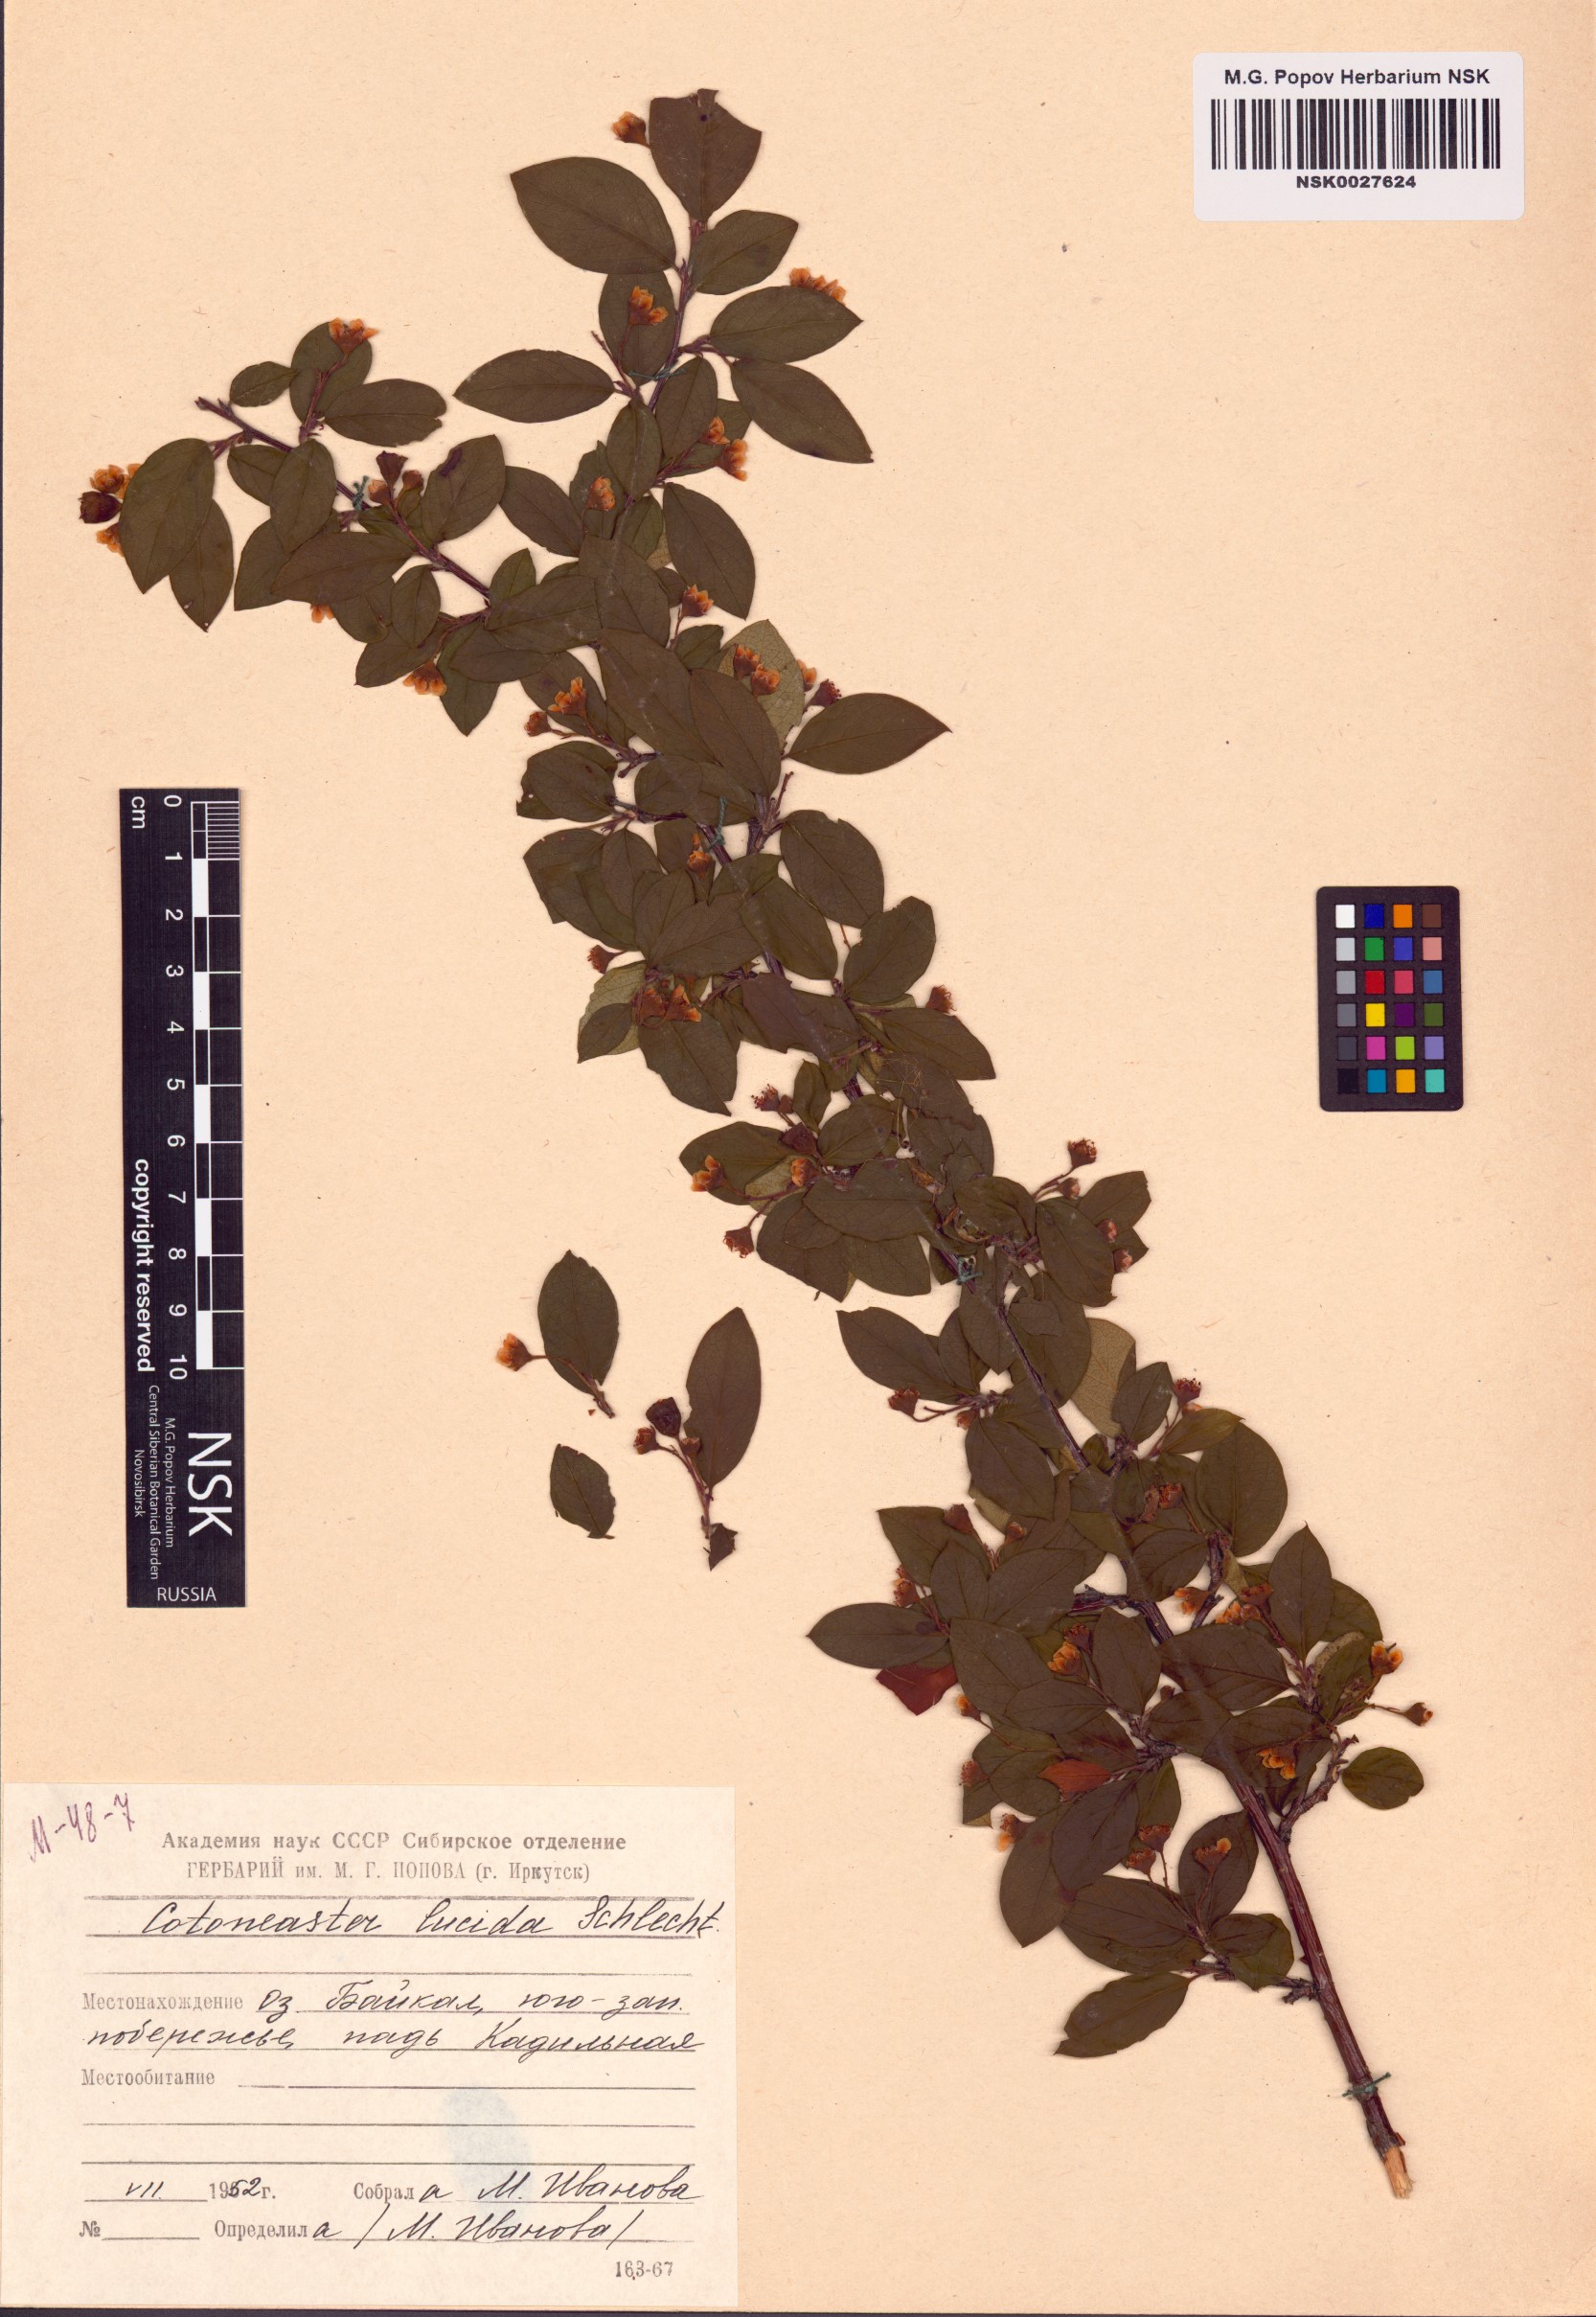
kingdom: Plantae
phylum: Tracheophyta
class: Magnoliopsida
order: Rosales
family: Rosaceae
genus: Cotoneaster
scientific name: Cotoneaster acutifolius
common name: Peking cotoneaster
